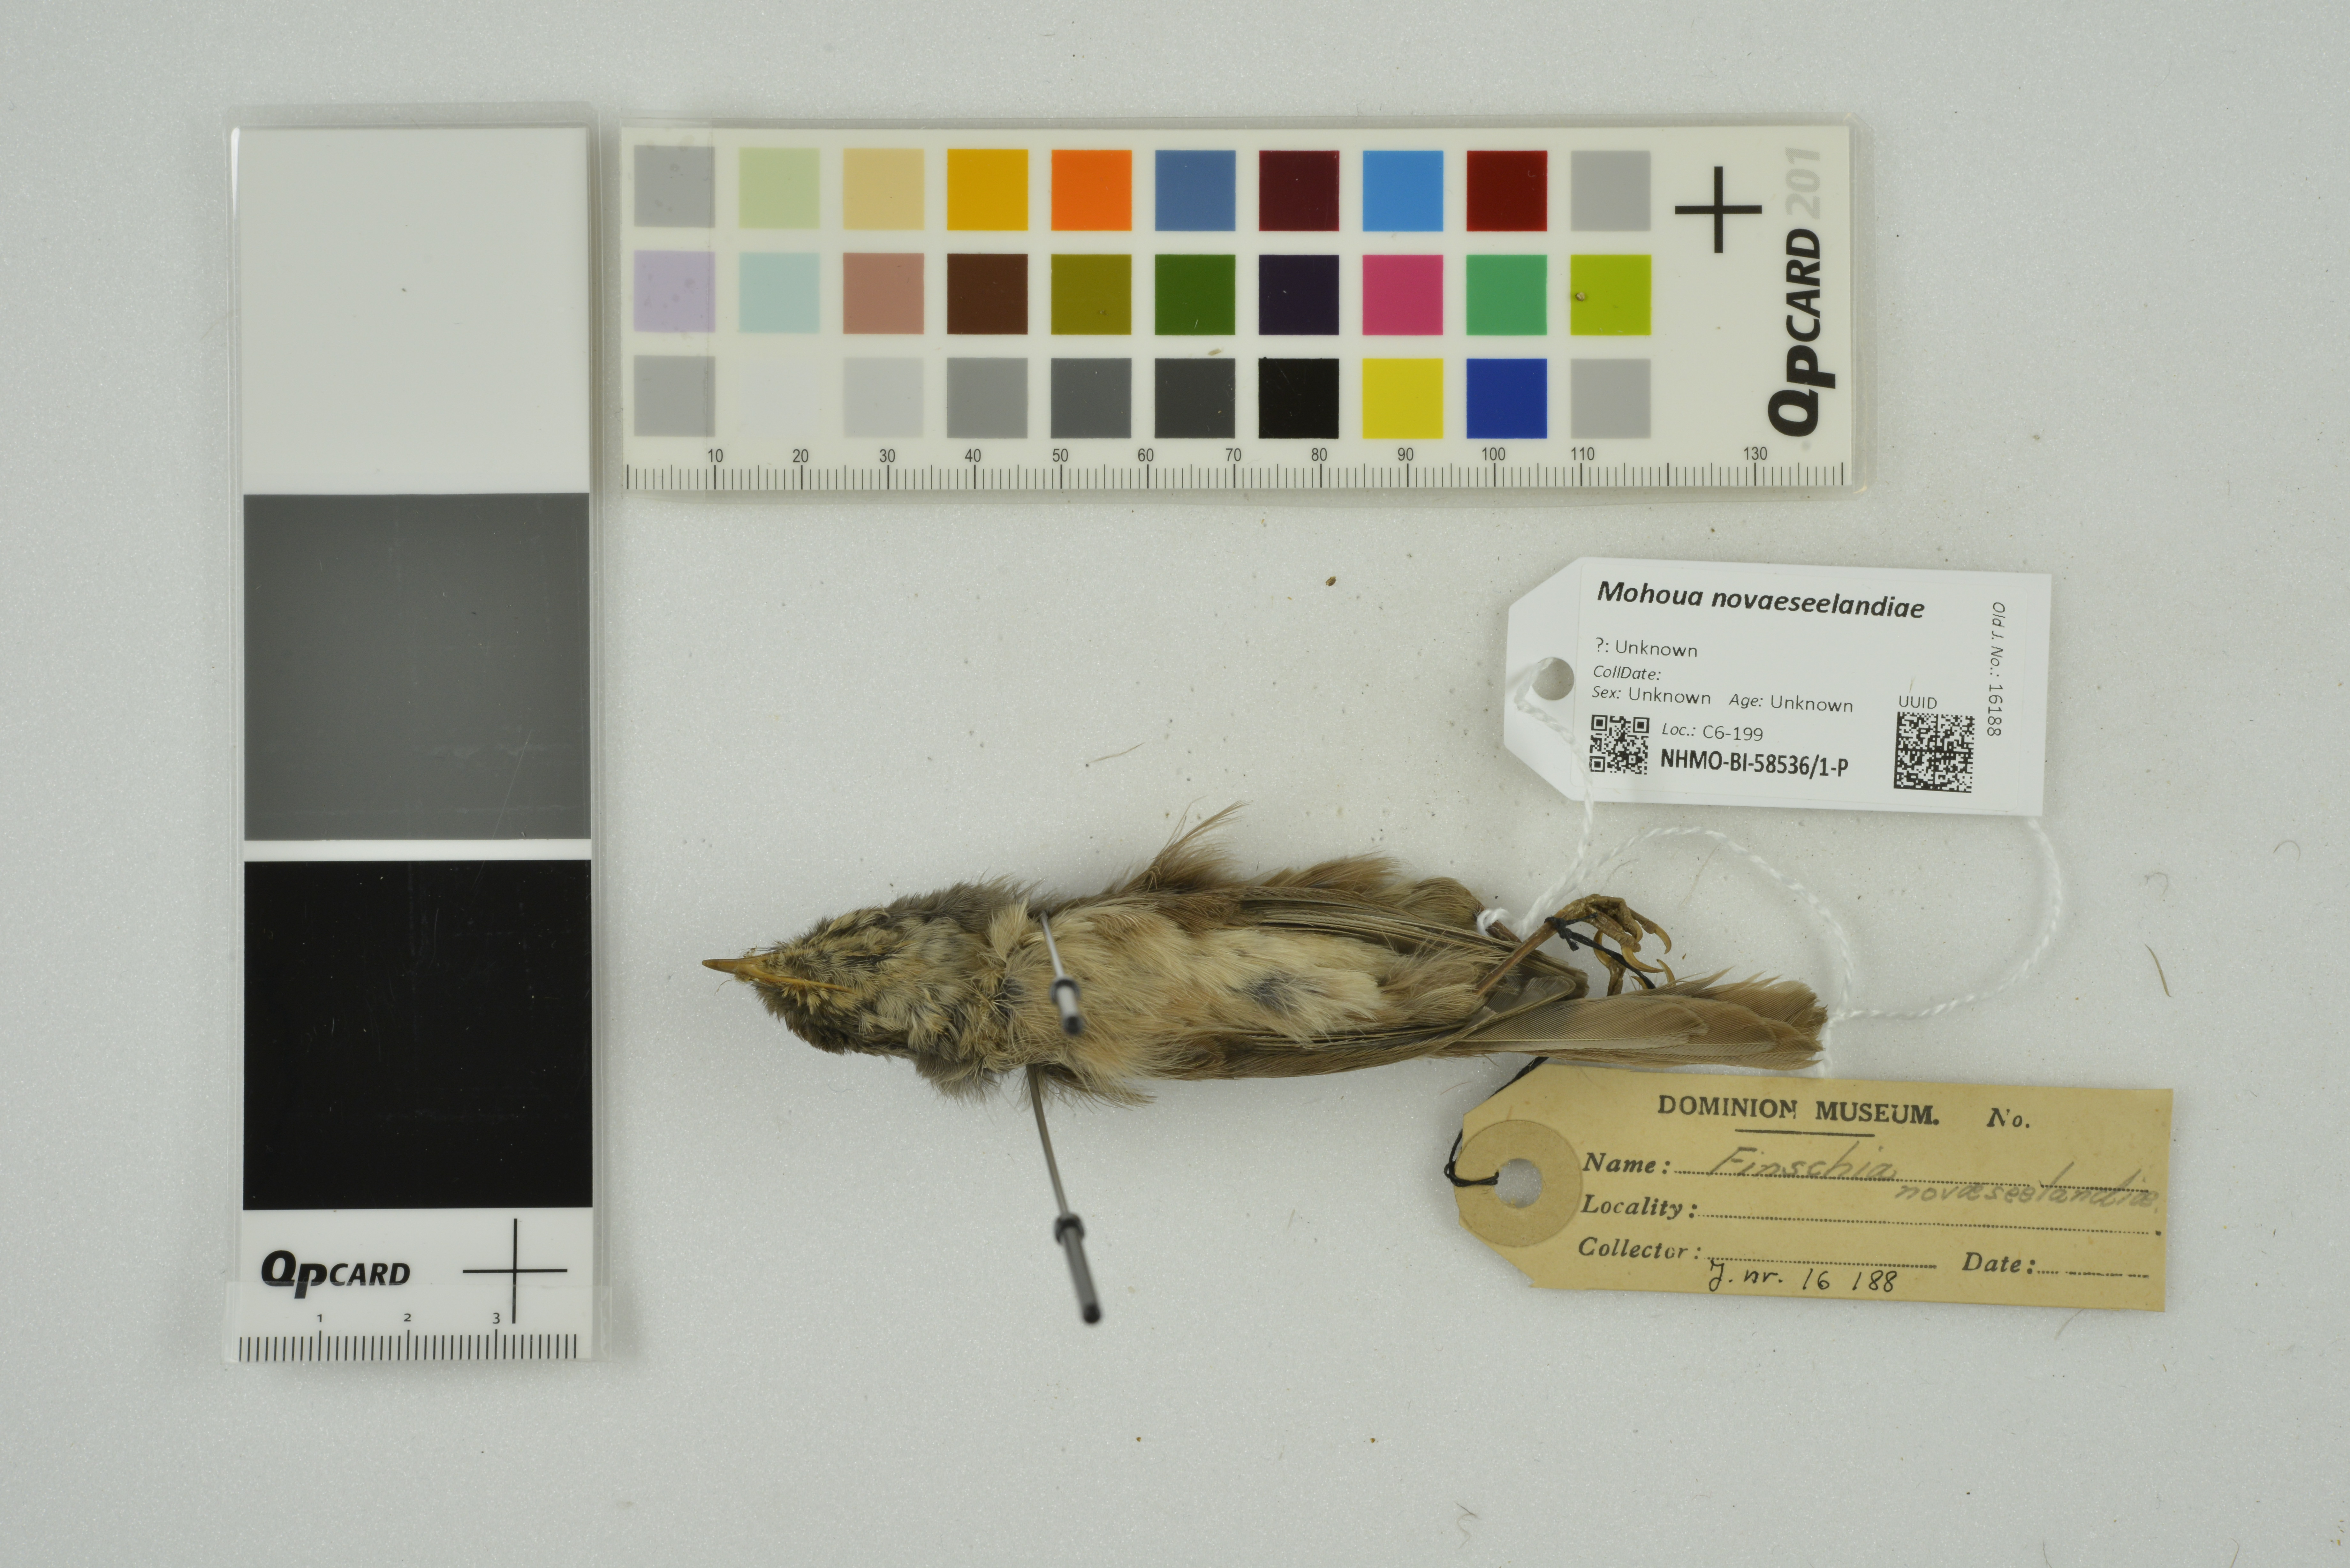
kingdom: Animalia
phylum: Chordata
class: Aves
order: Passeriformes
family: Acanthizidae
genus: Finschia
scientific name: Finschia novaeseelandiae
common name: Pipipi
